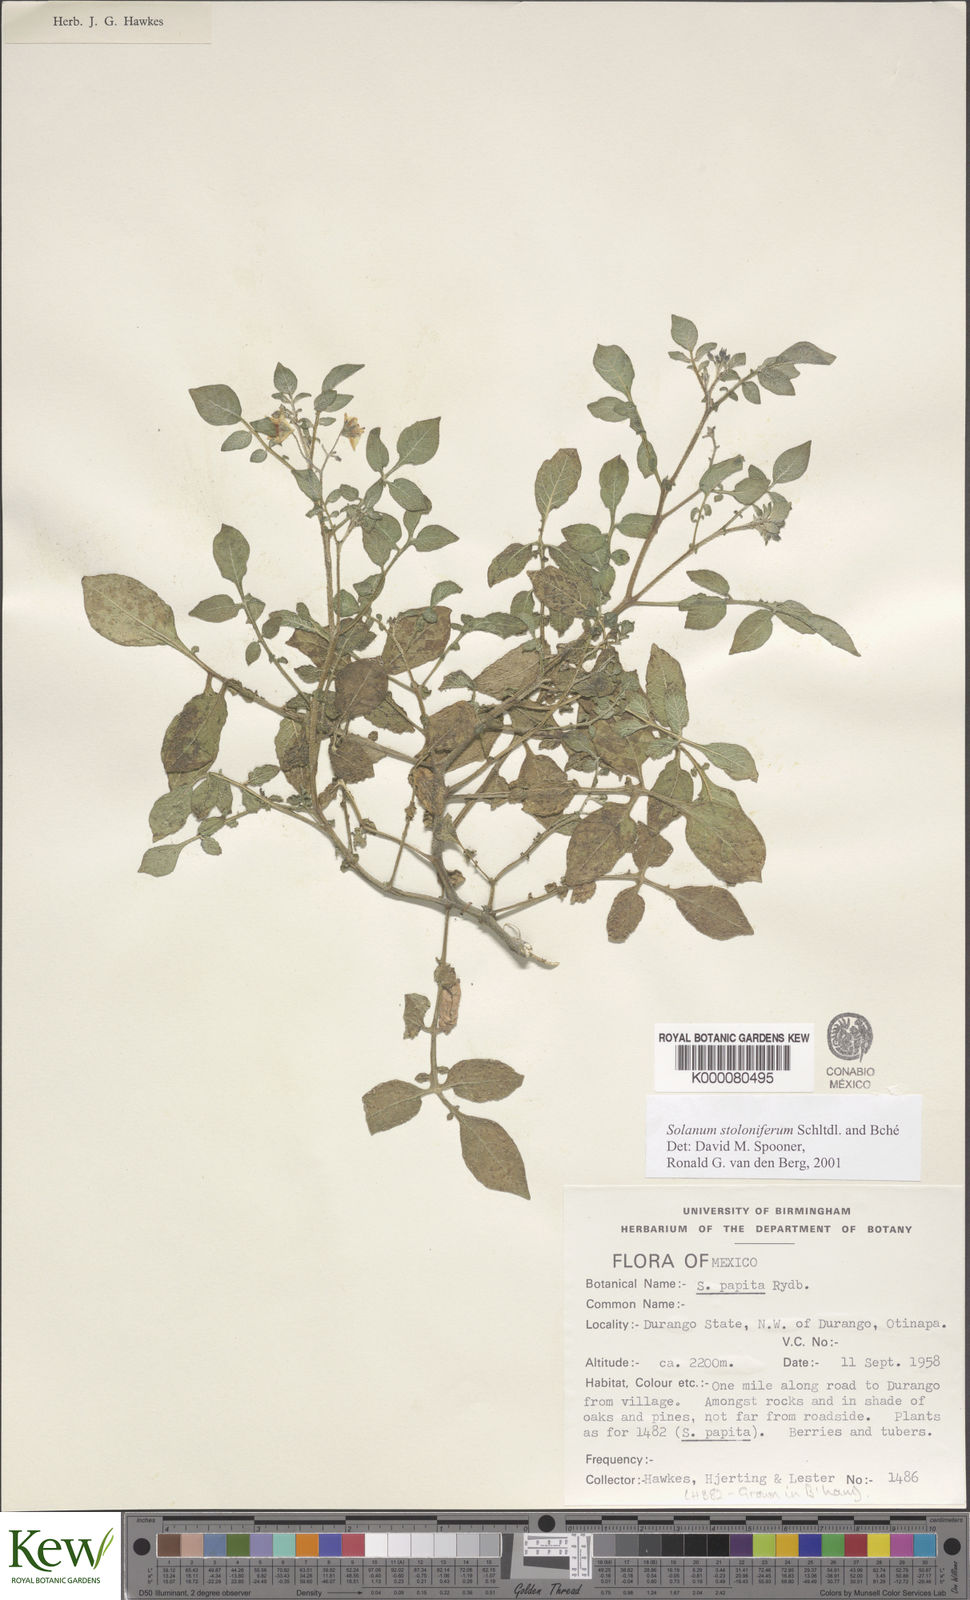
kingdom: Plantae
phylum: Tracheophyta
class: Magnoliopsida
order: Solanales
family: Solanaceae
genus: Solanum
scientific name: Solanum stoloniferum
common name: Fendler's nighshade
